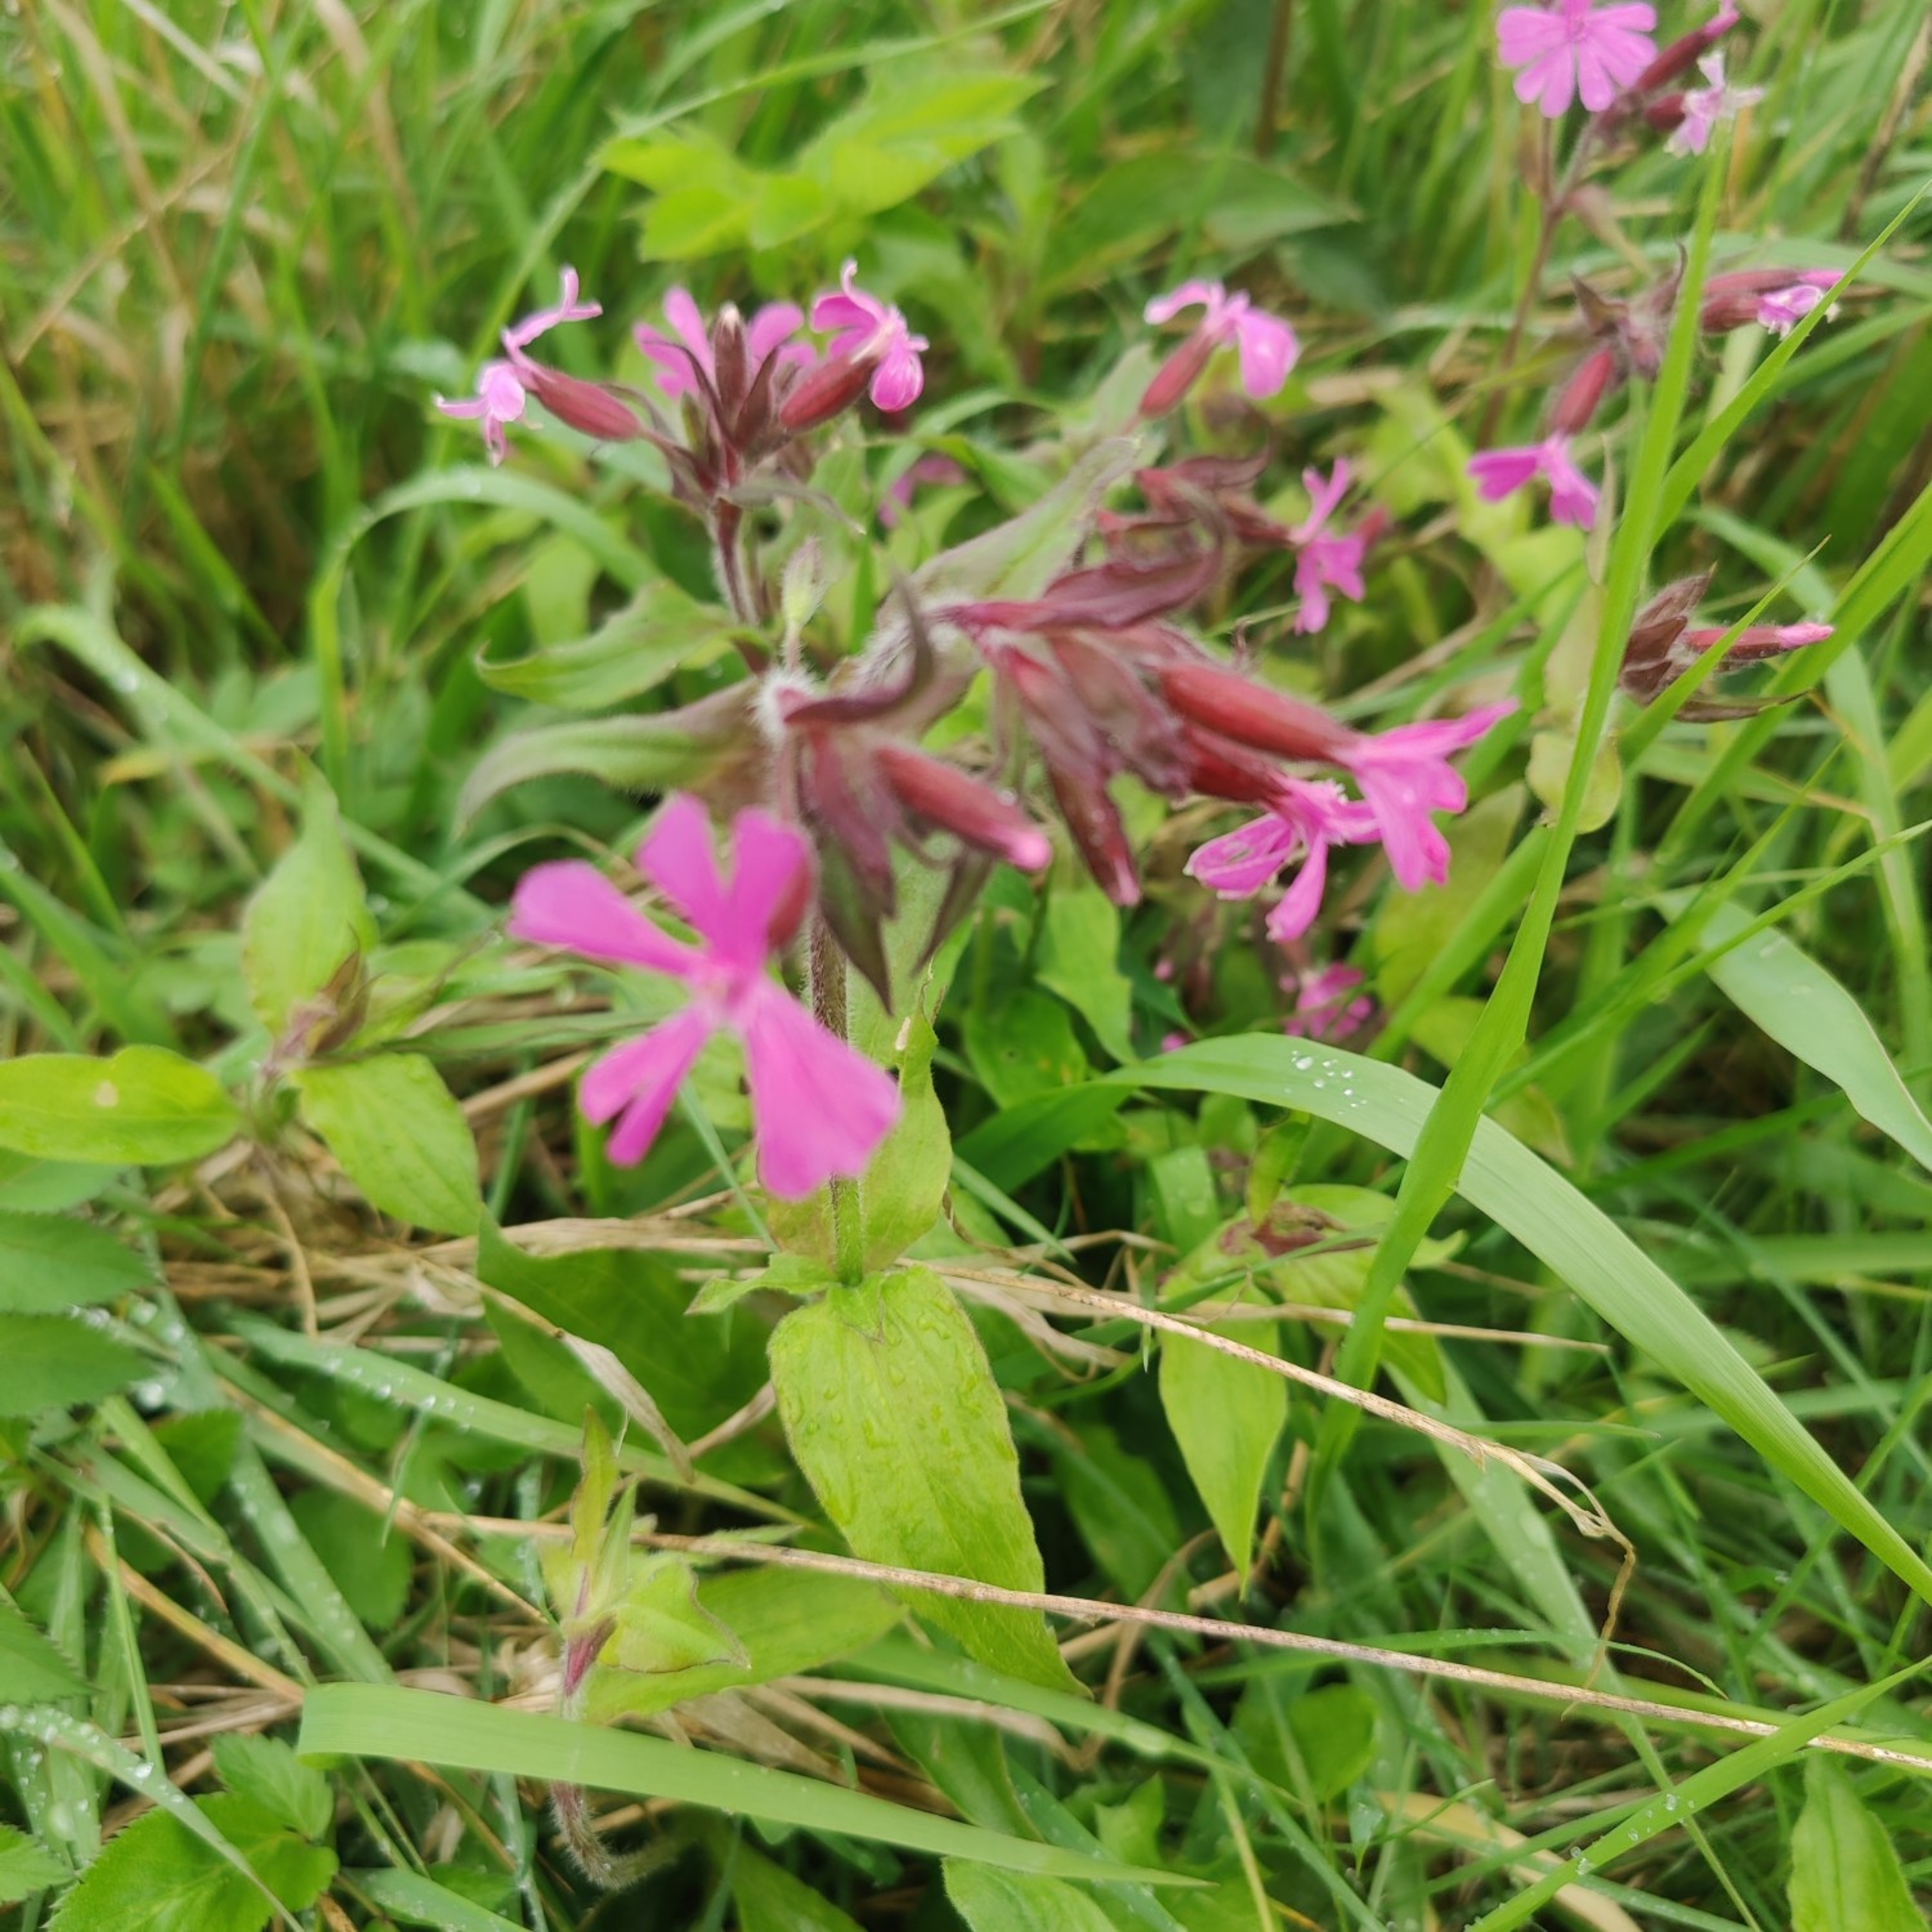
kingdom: Plantae
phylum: Tracheophyta
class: Magnoliopsida
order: Caryophyllales
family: Caryophyllaceae
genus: Silene
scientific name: Silene dioica
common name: Dagpragtstjerne
